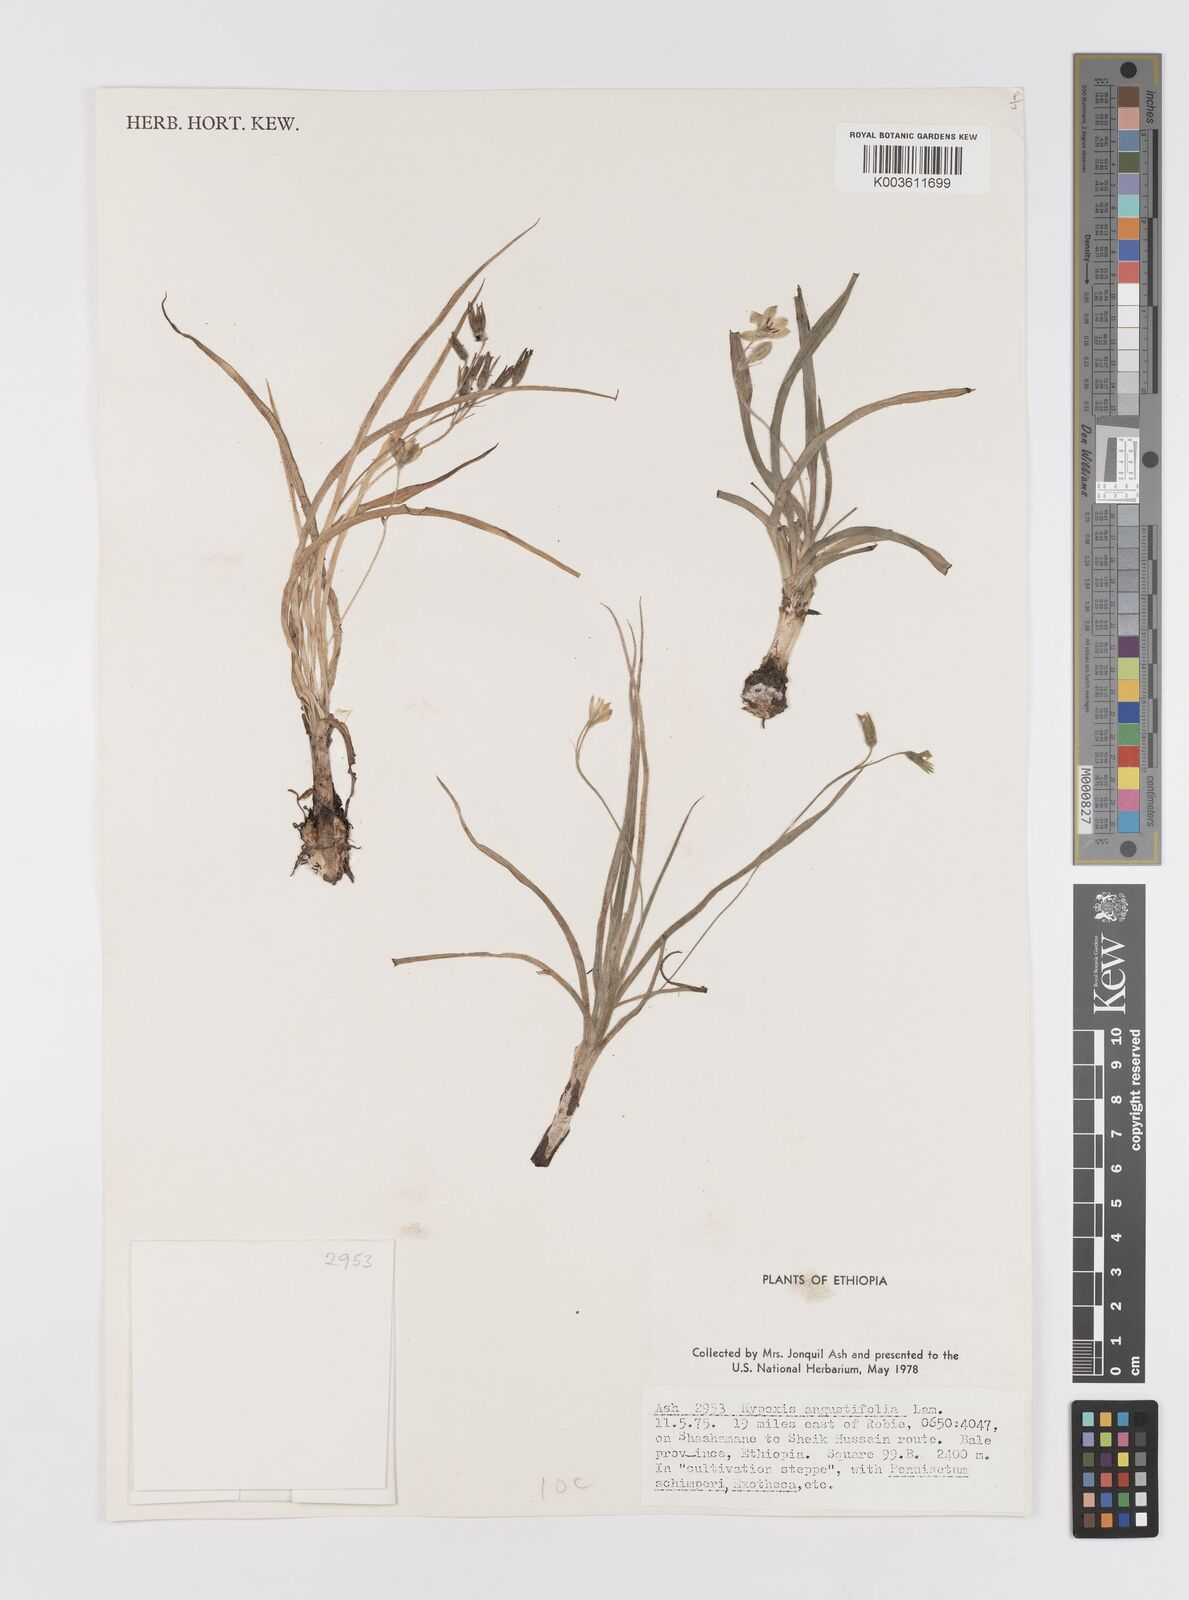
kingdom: Plantae
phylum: Tracheophyta
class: Liliopsida
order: Asparagales
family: Hypoxidaceae
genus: Hypoxis
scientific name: Hypoxis
